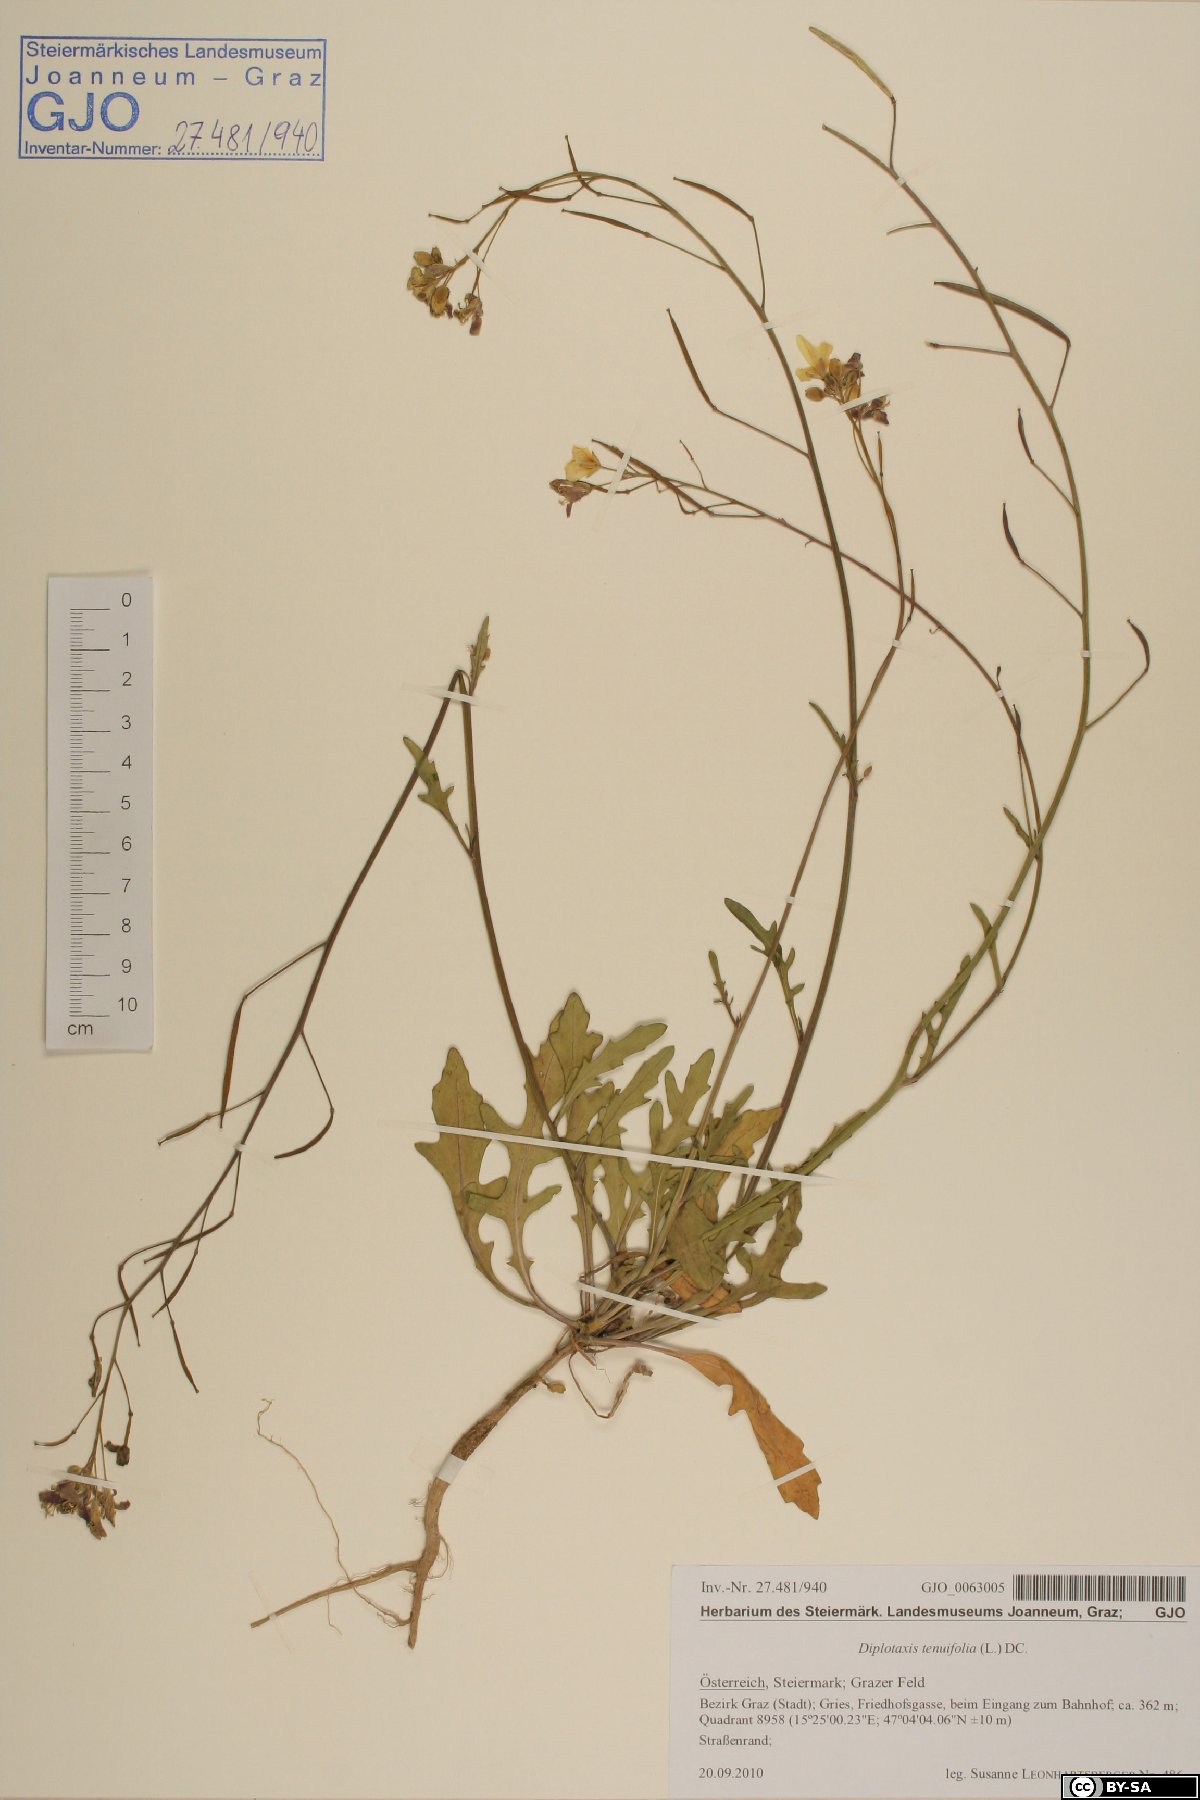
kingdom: Plantae
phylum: Tracheophyta
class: Magnoliopsida
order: Brassicales
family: Brassicaceae
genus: Diplotaxis
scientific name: Diplotaxis tenuifolia
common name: Perennial wall-rocket
